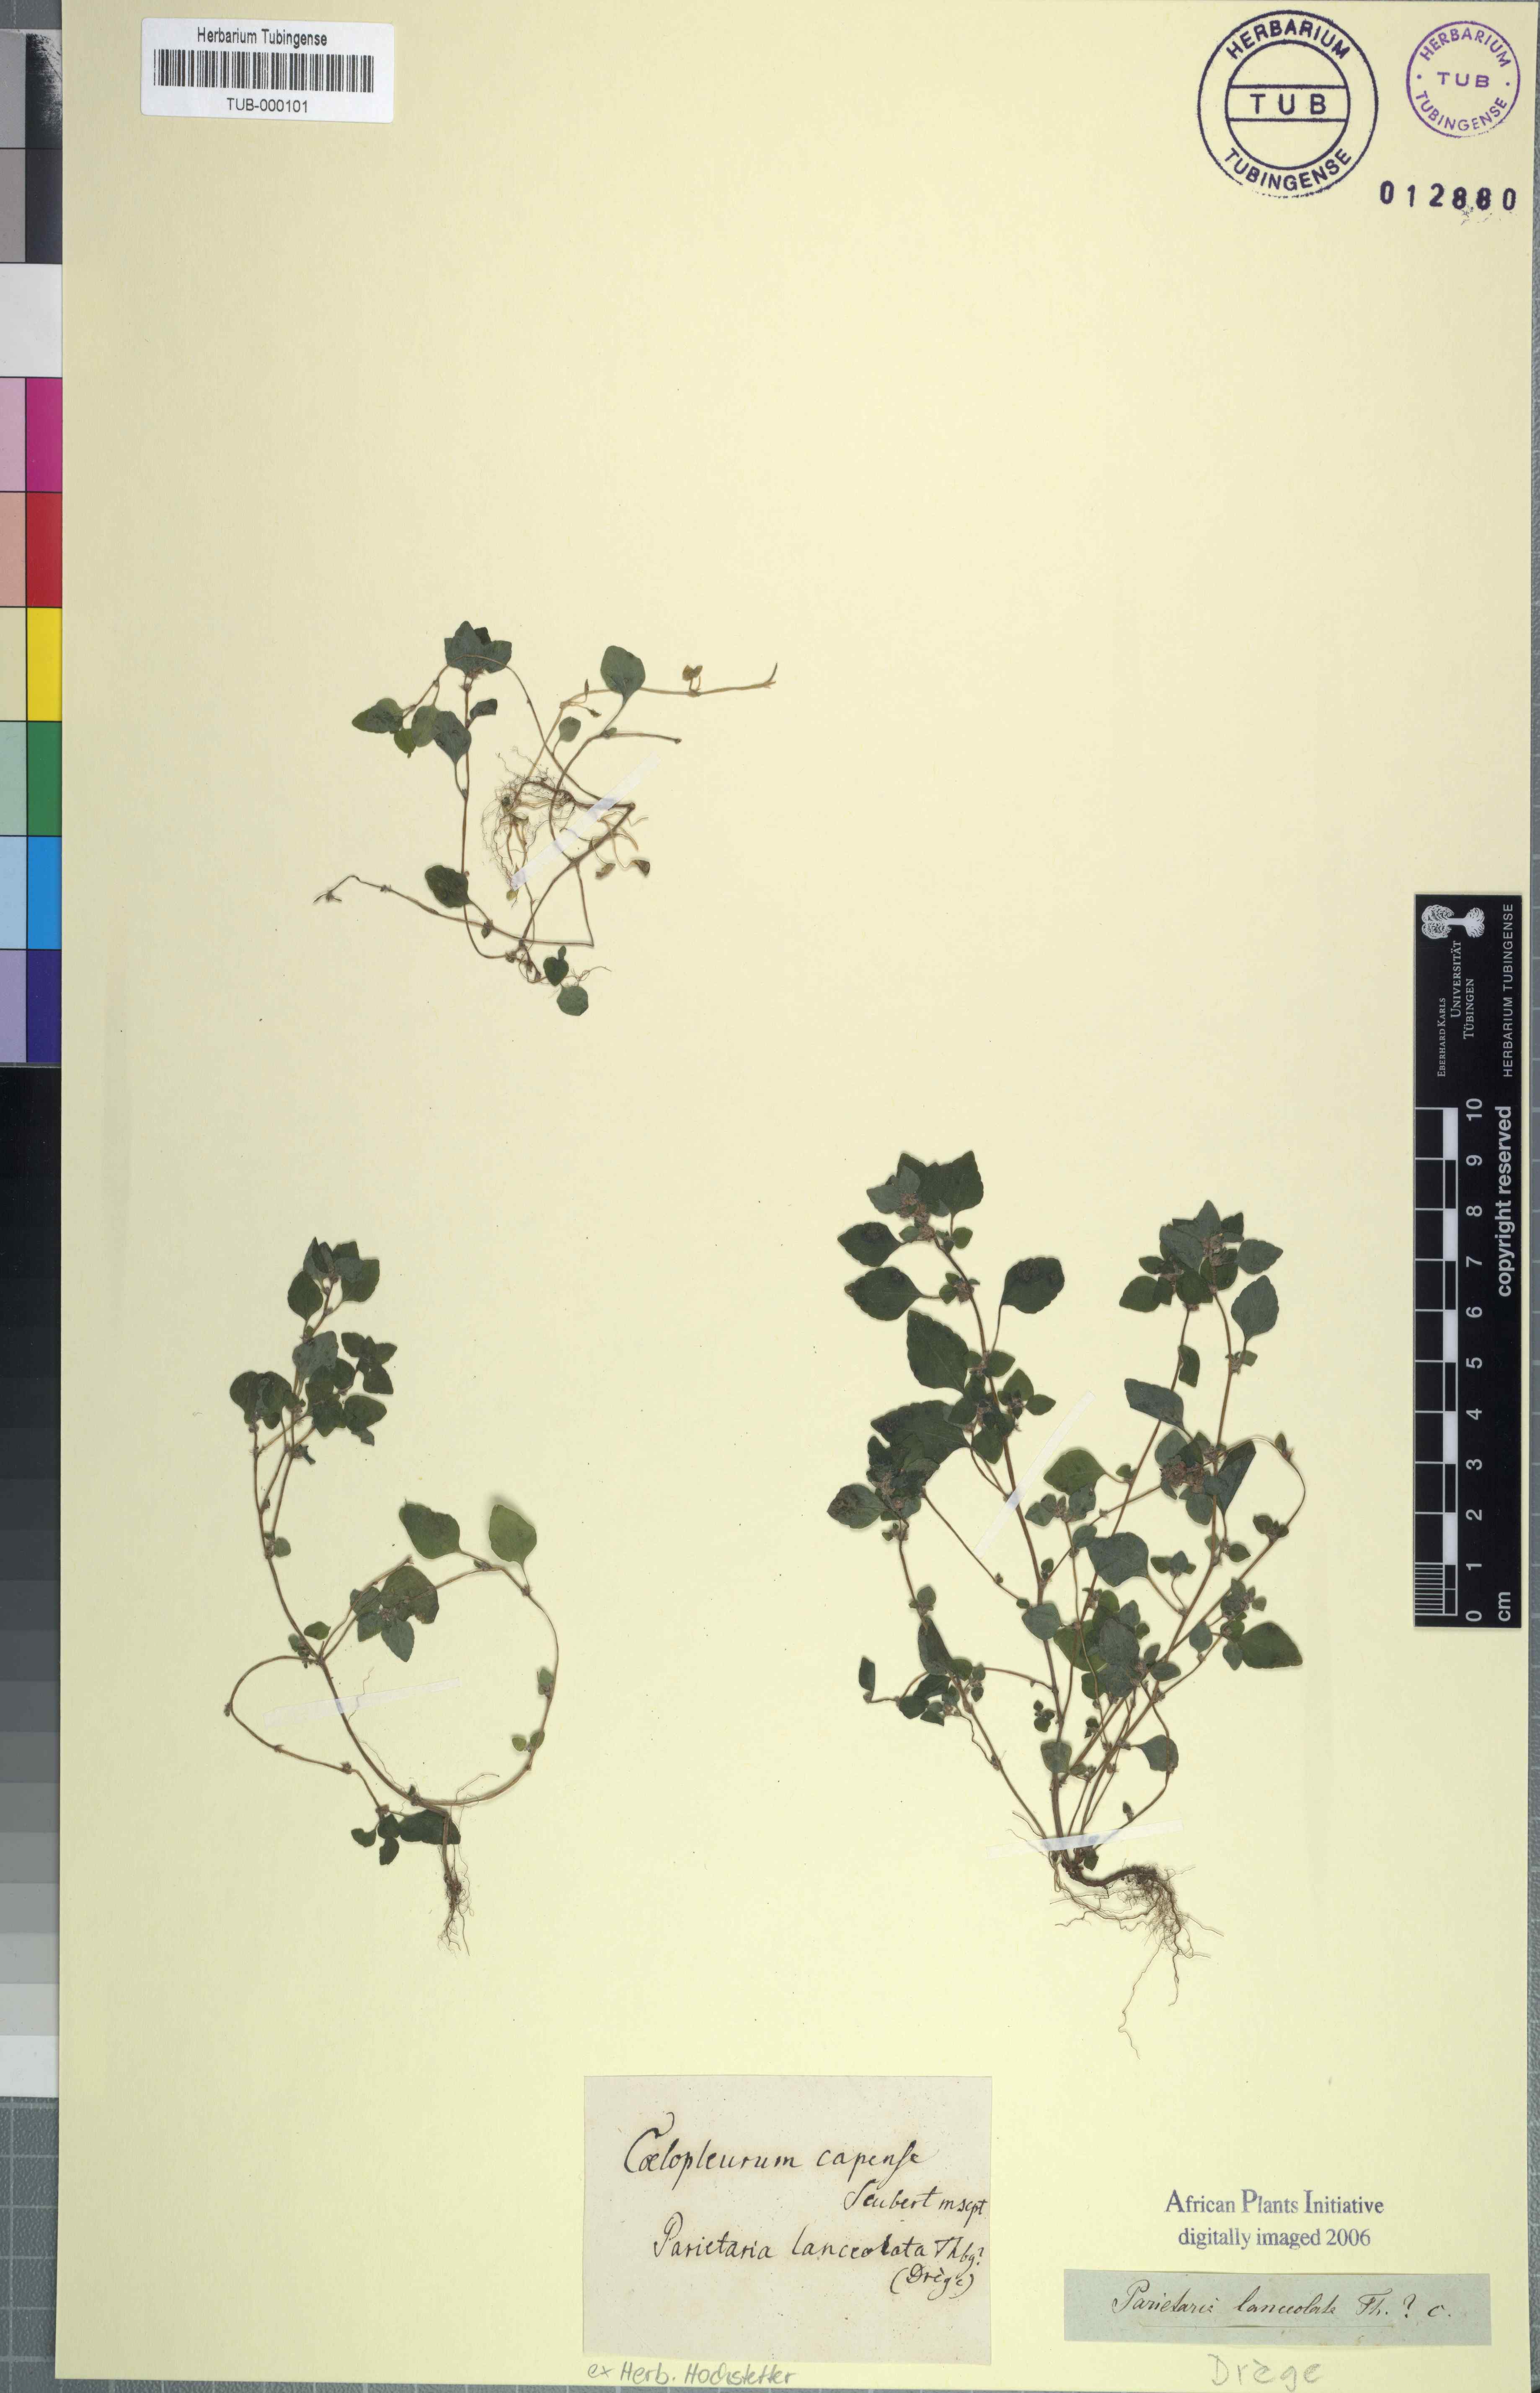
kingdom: Plantae
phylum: Tracheophyta
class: Magnoliopsida
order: Rosales
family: Urticaceae
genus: Didymodoxa
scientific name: Didymodoxa capensis
